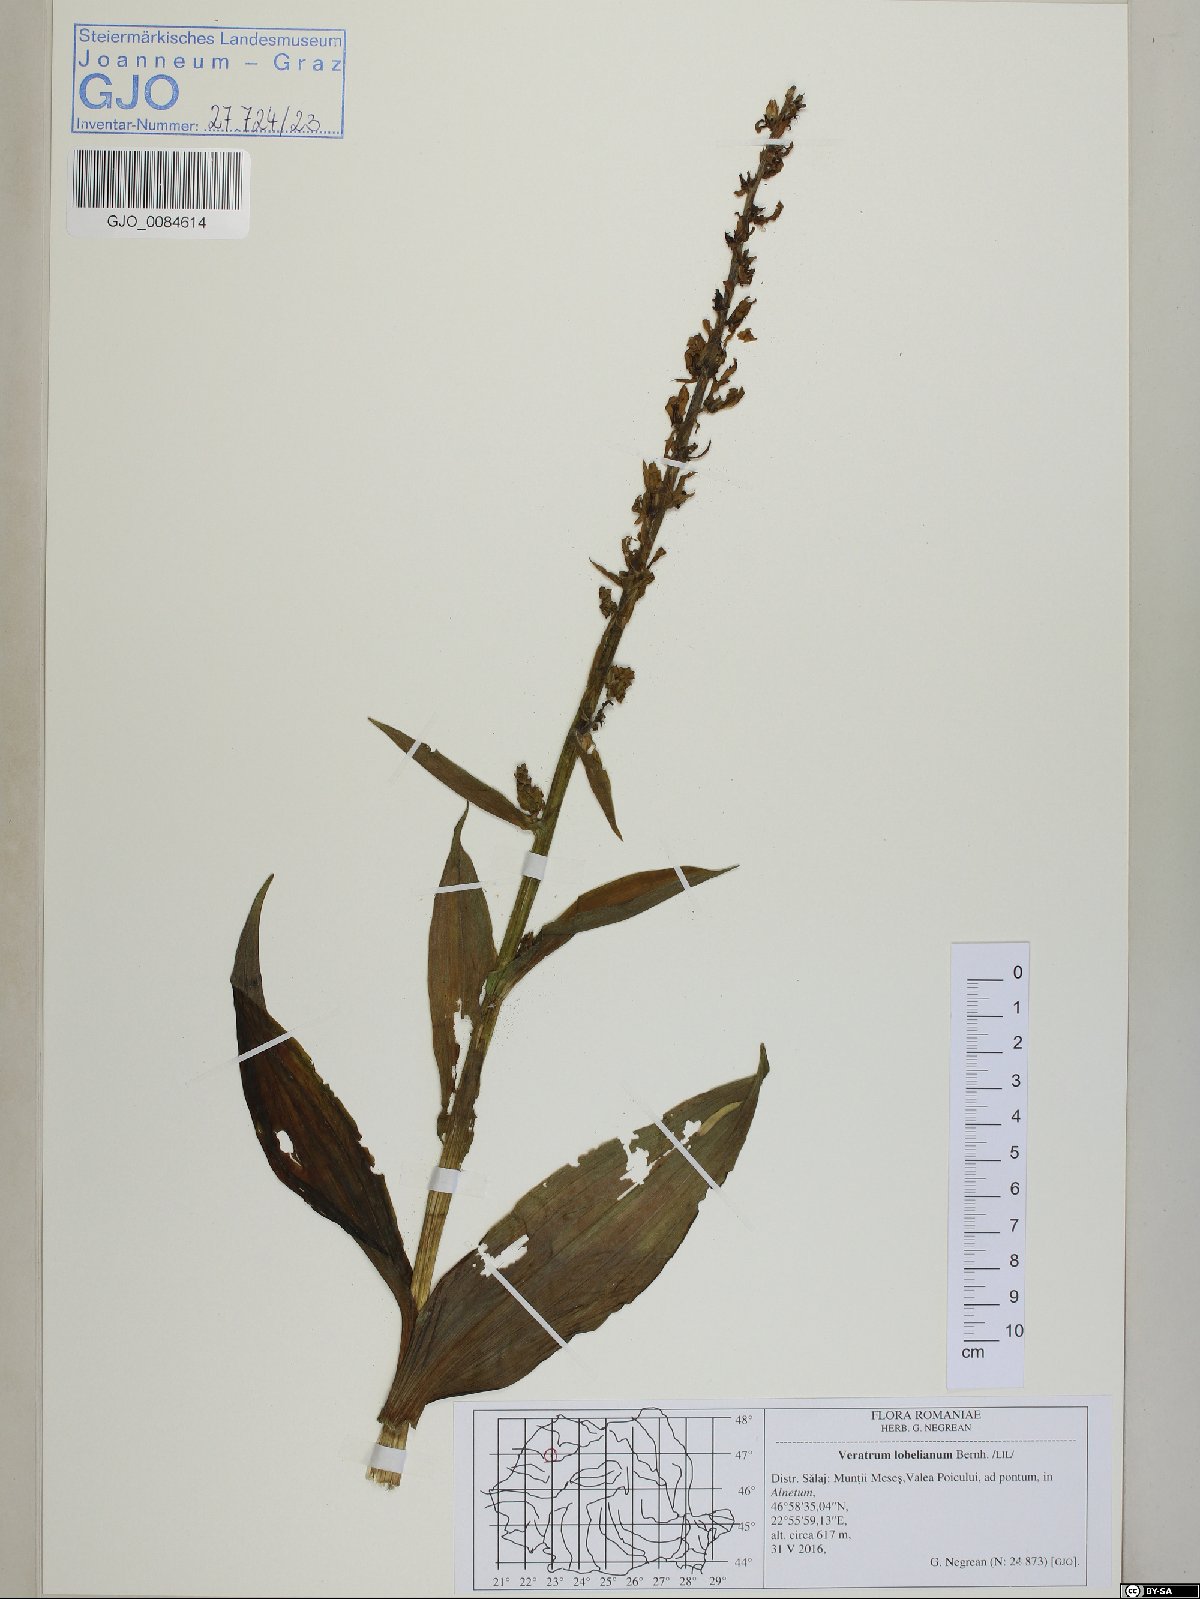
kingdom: Plantae
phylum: Tracheophyta
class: Liliopsida
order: Liliales
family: Melanthiaceae
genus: Veratrum
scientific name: Veratrum lobelianum
